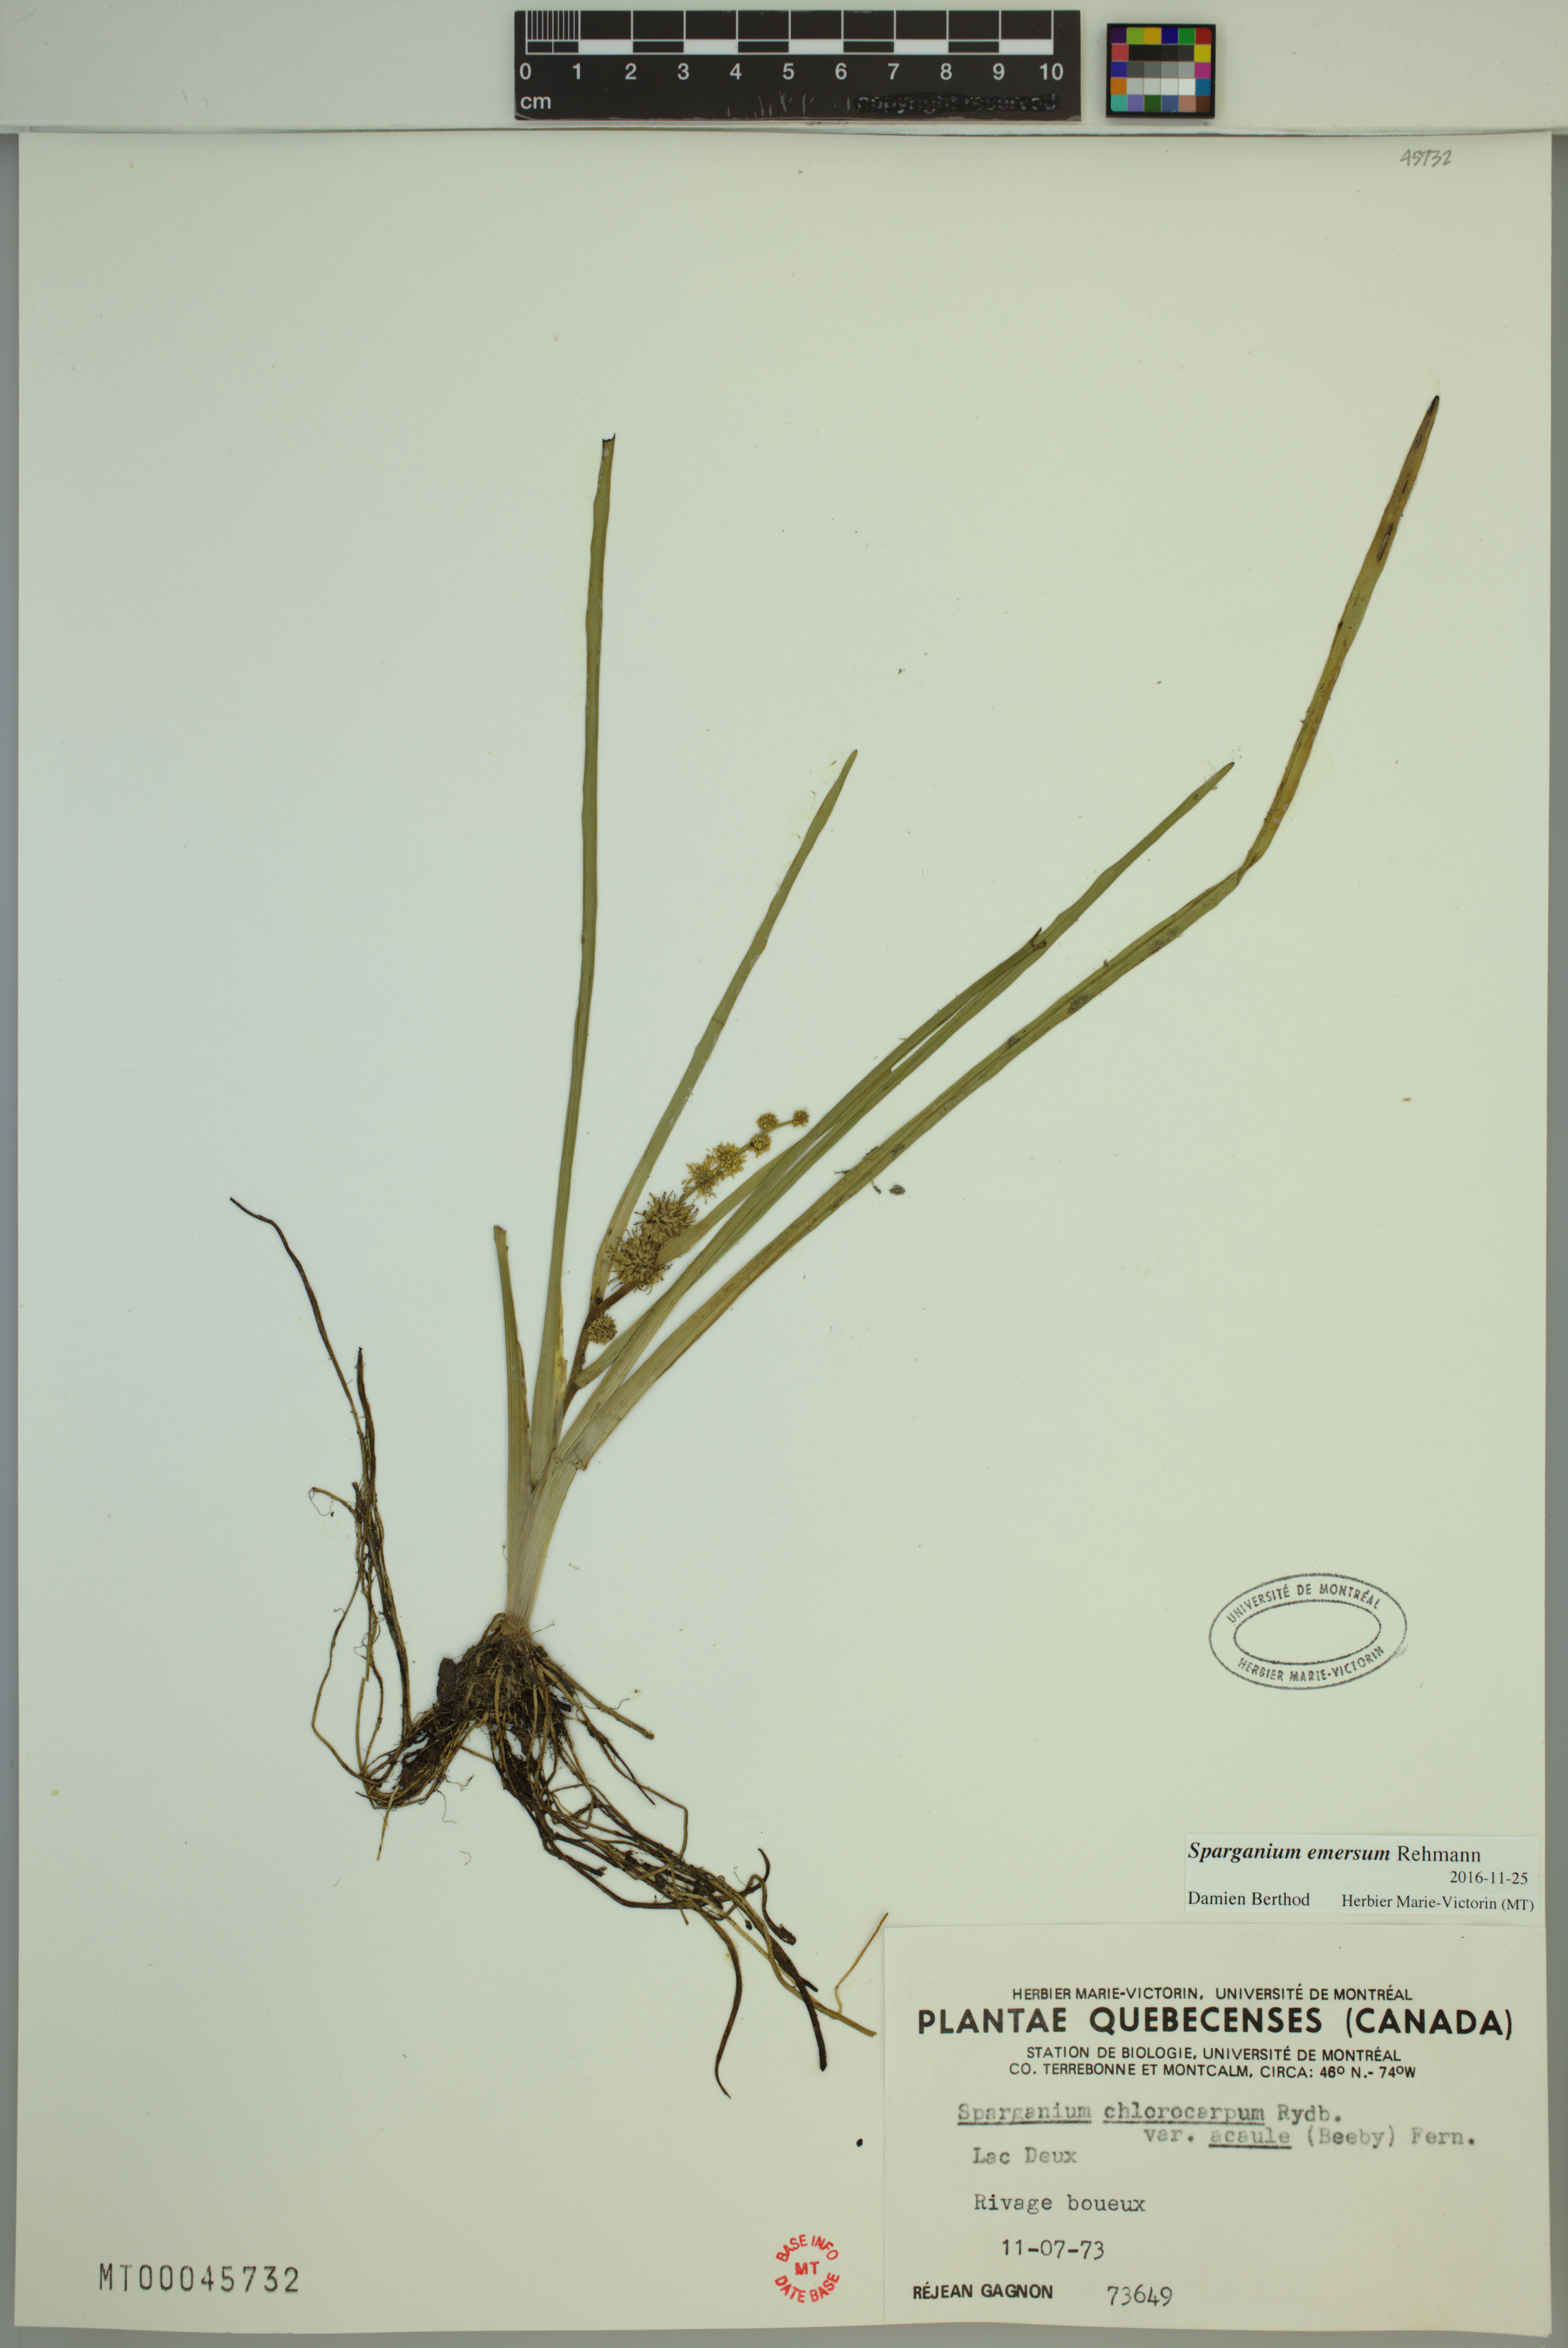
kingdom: Plantae
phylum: Tracheophyta
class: Liliopsida
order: Poales
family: Typhaceae
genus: Sparganium
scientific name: Sparganium emersum
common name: Unbranched bur-reed
